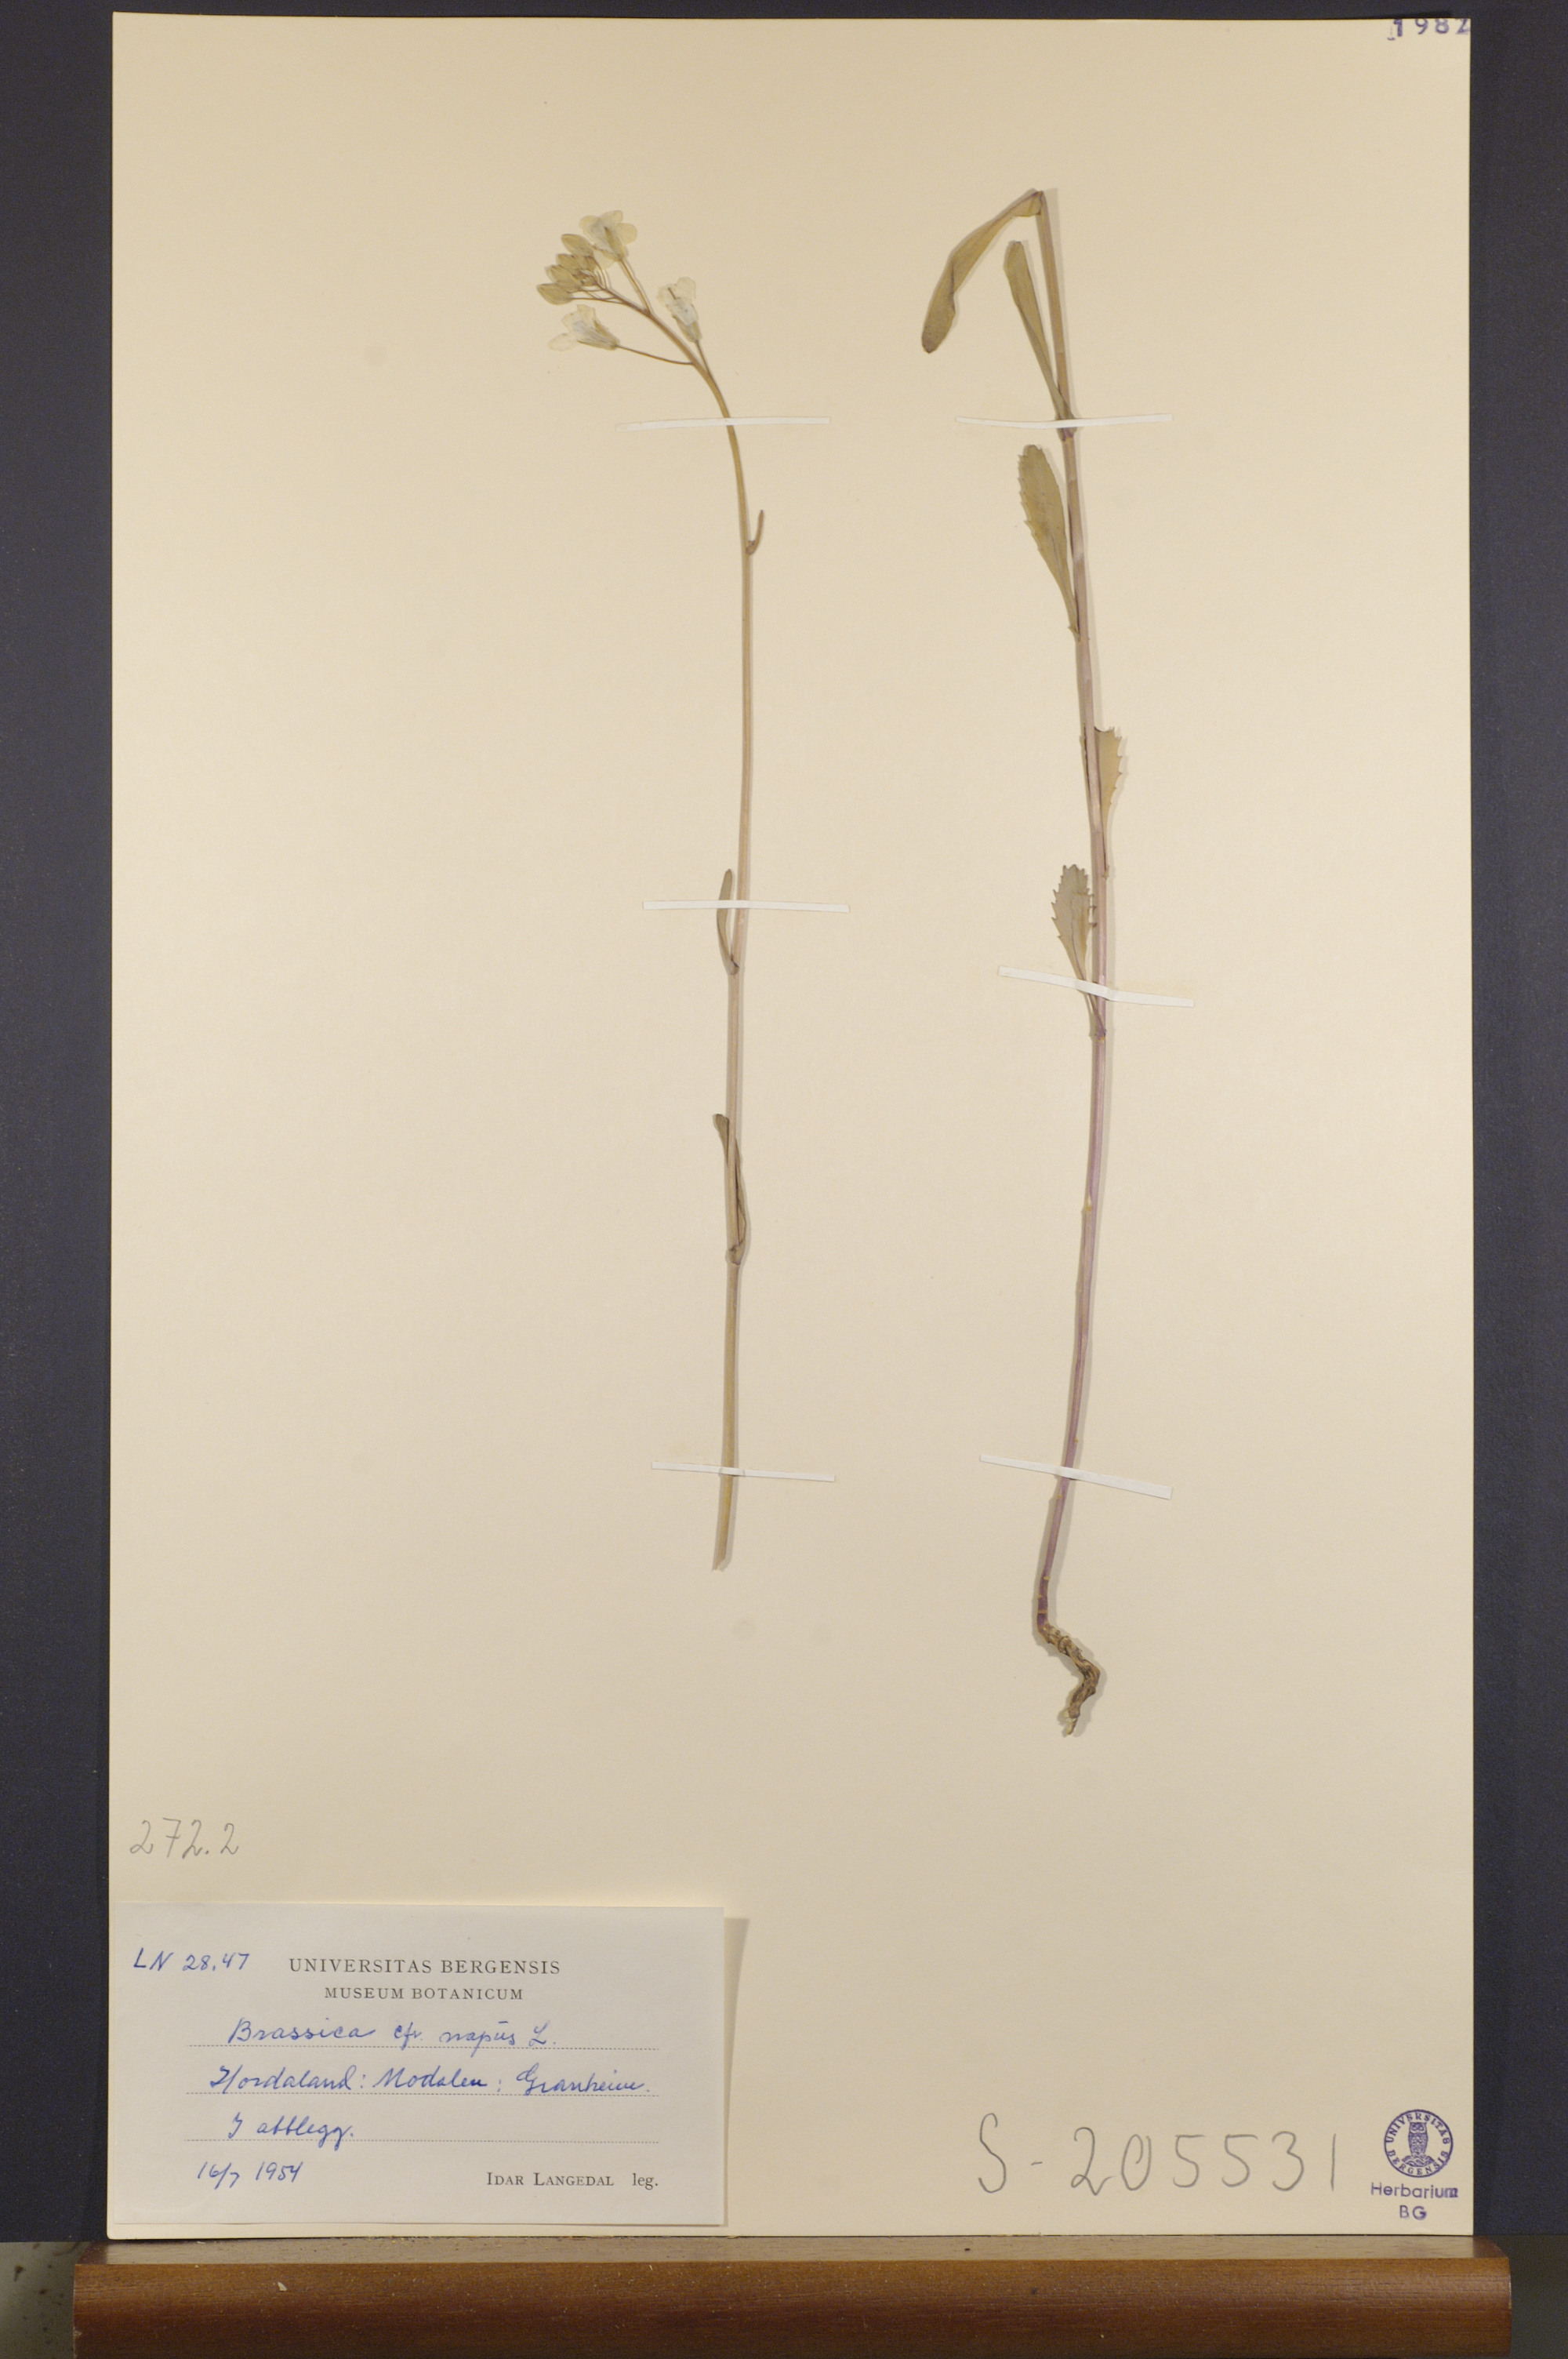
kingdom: Plantae
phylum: Tracheophyta
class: Magnoliopsida
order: Brassicales
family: Brassicaceae
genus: Brassica
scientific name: Brassica napus
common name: Rape
